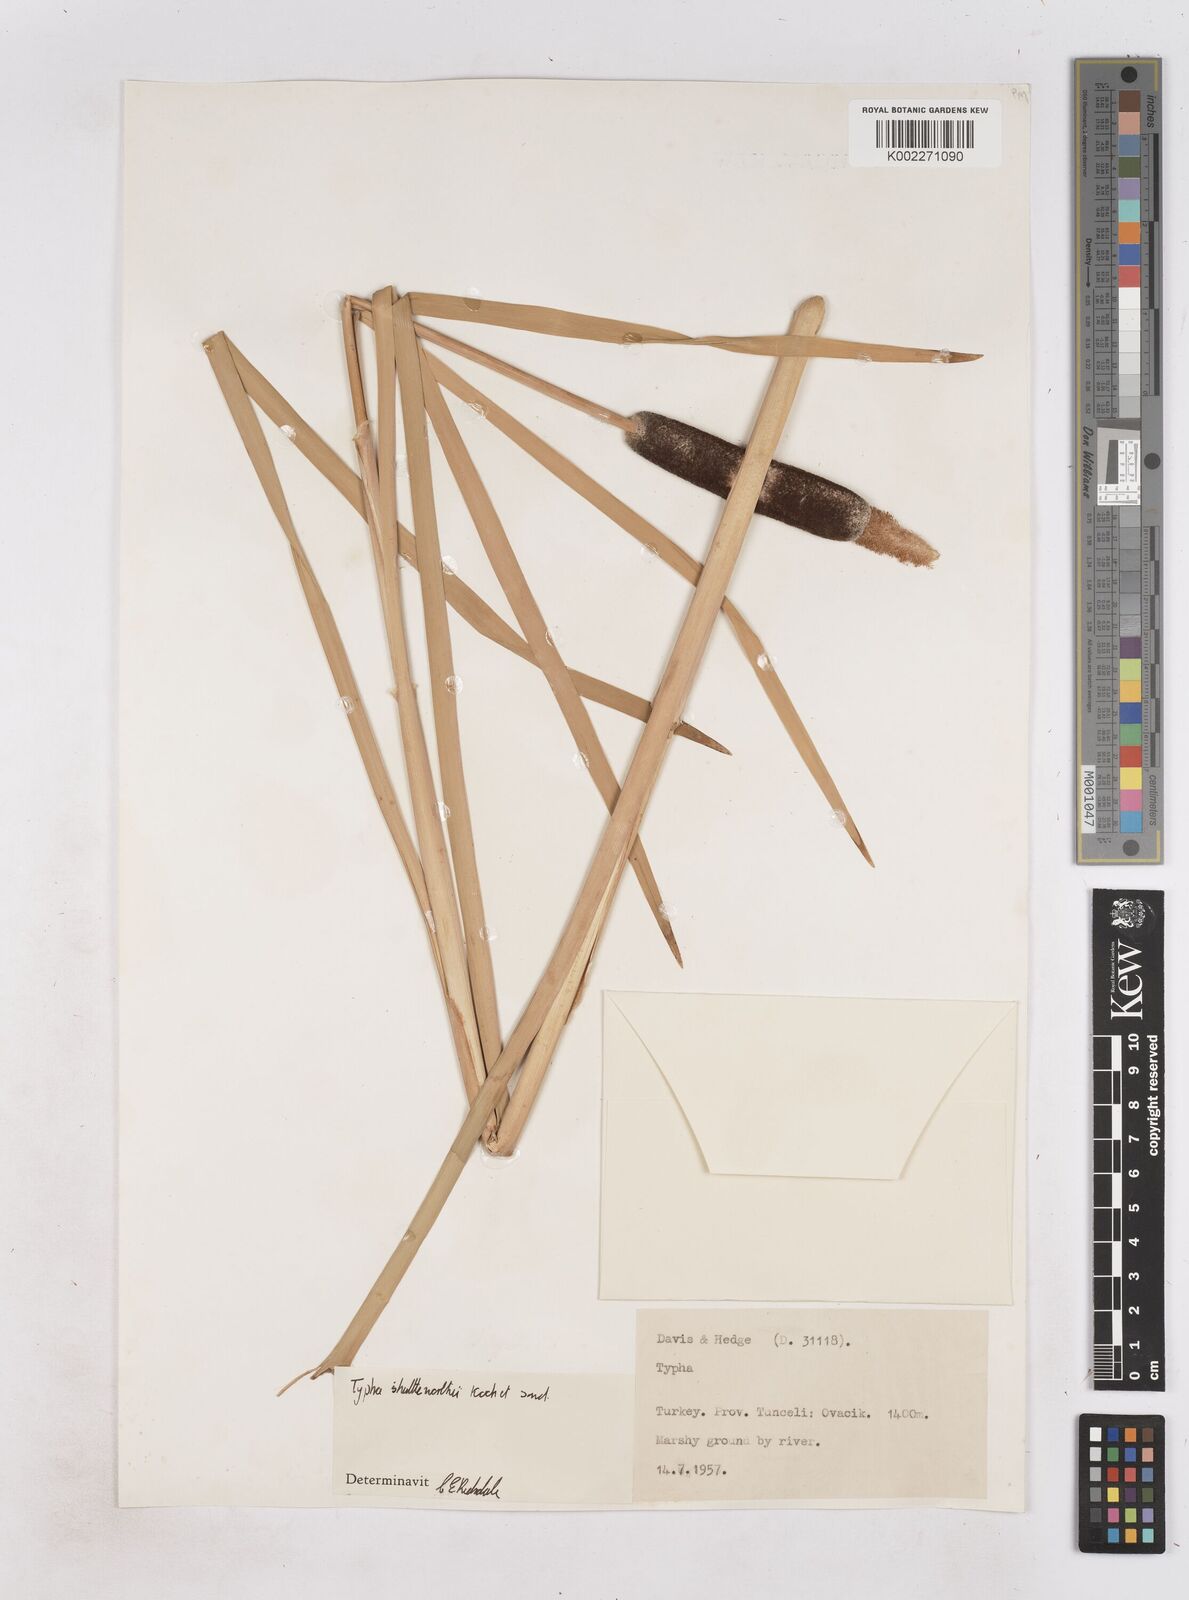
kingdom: Plantae
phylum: Tracheophyta
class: Liliopsida
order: Poales
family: Typhaceae
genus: Typha
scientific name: Typha shuttleworthii
